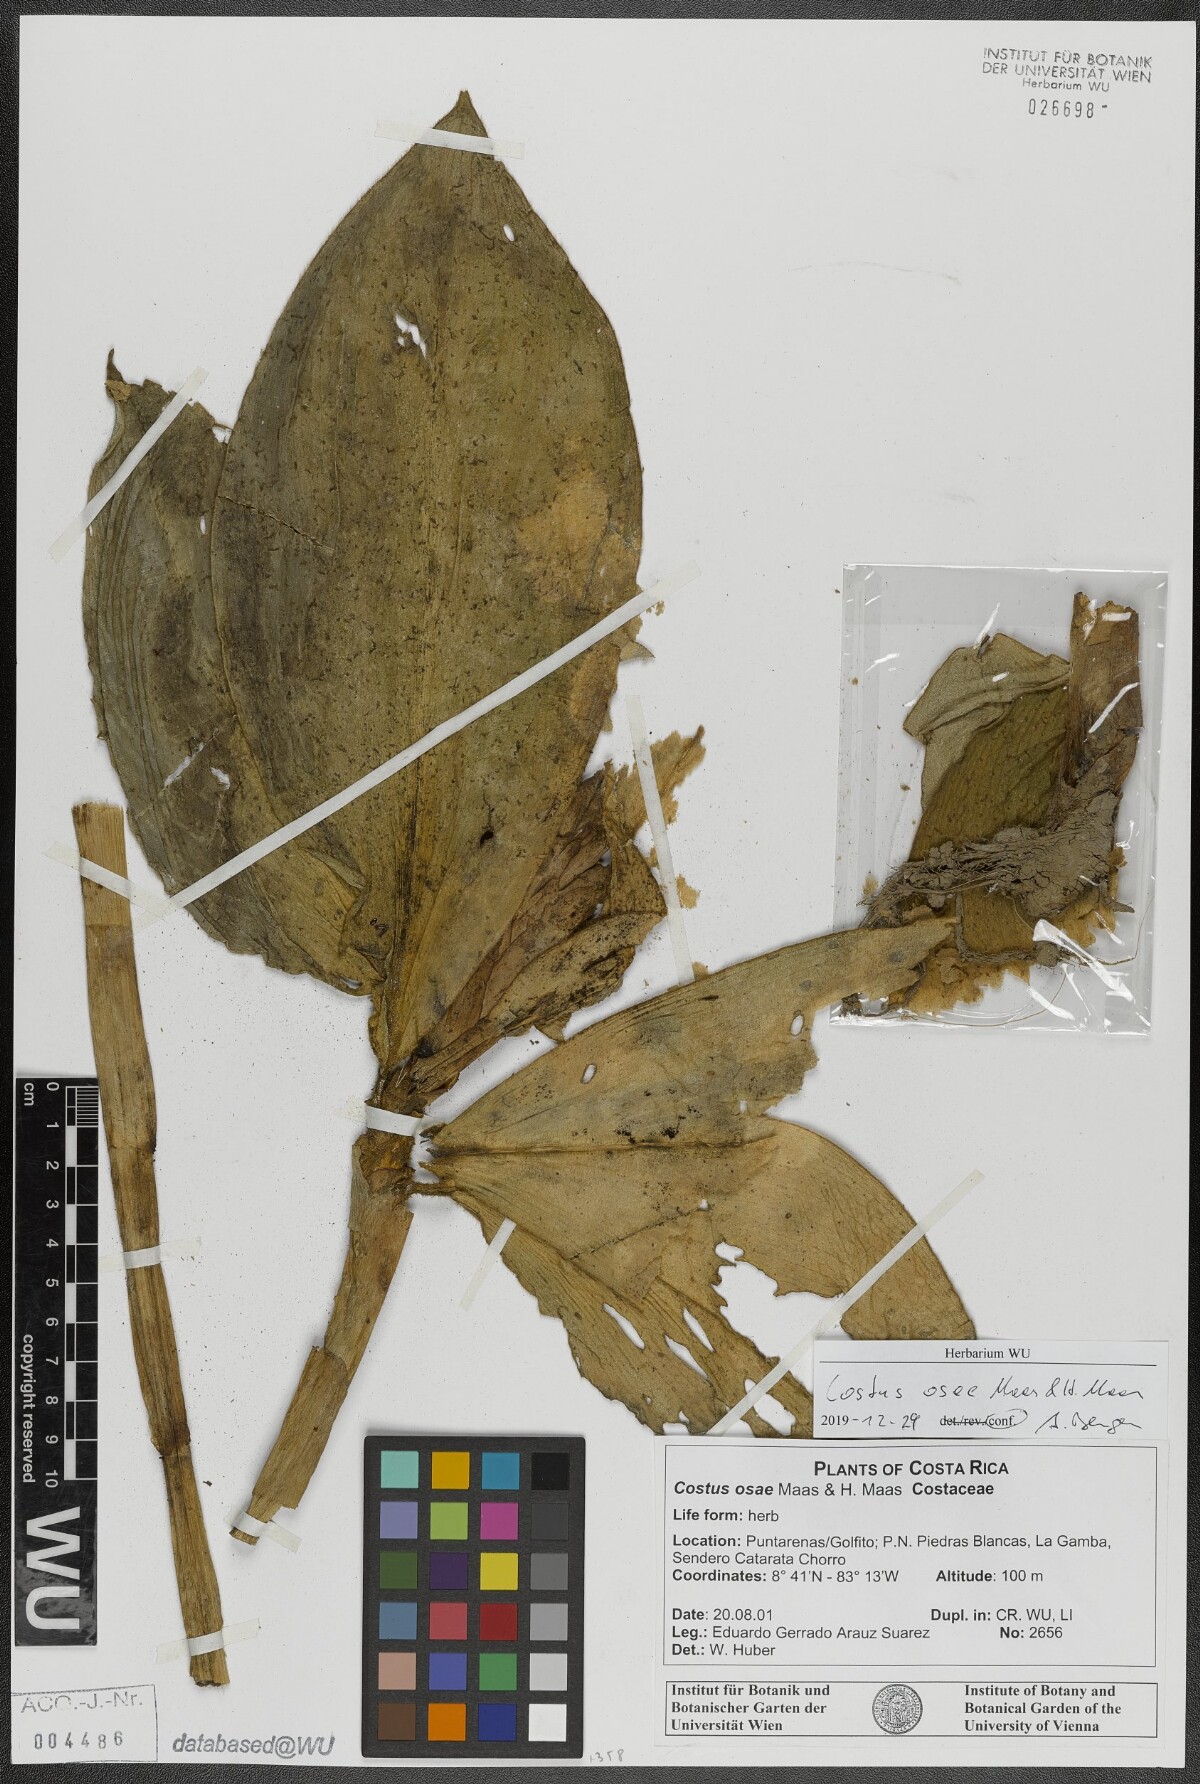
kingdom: Plantae
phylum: Tracheophyta
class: Liliopsida
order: Zingiberales
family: Costaceae
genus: Costus
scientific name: Costus osae
